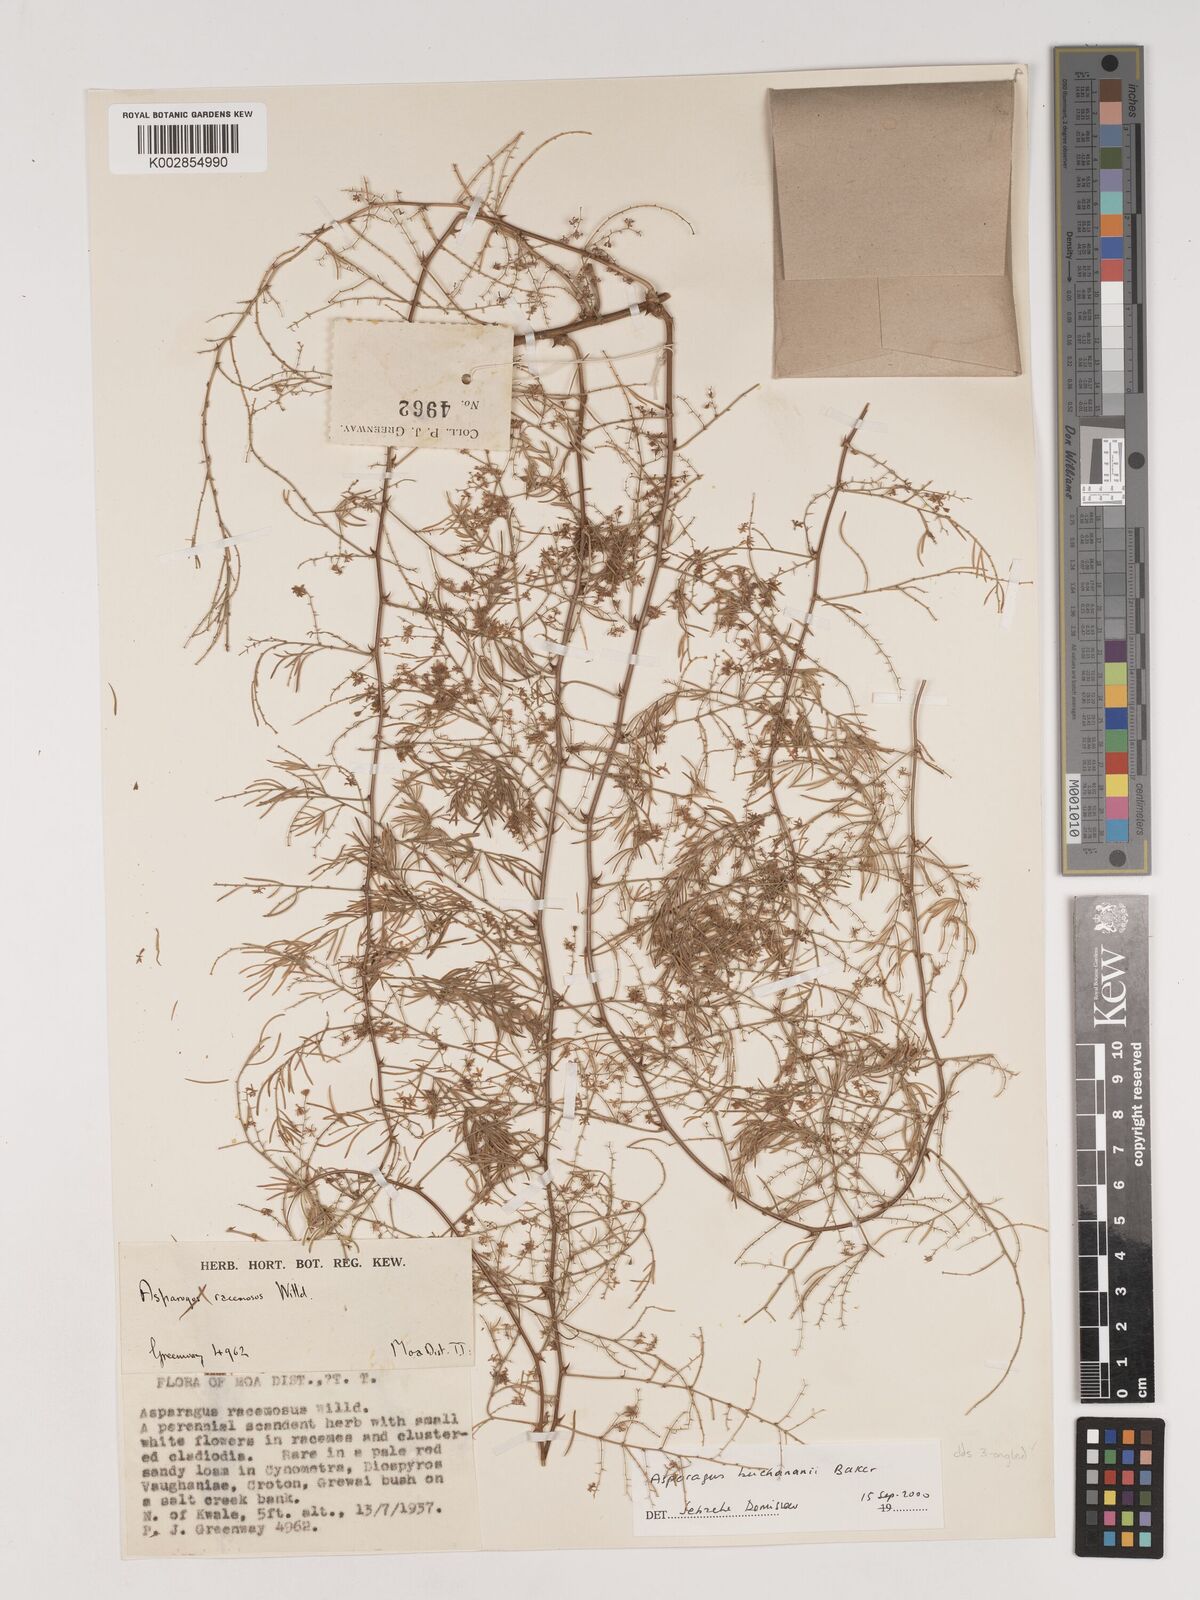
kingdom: Plantae
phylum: Tracheophyta
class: Liliopsida
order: Asparagales
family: Asparagaceae
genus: Asparagus
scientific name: Asparagus buchananii
